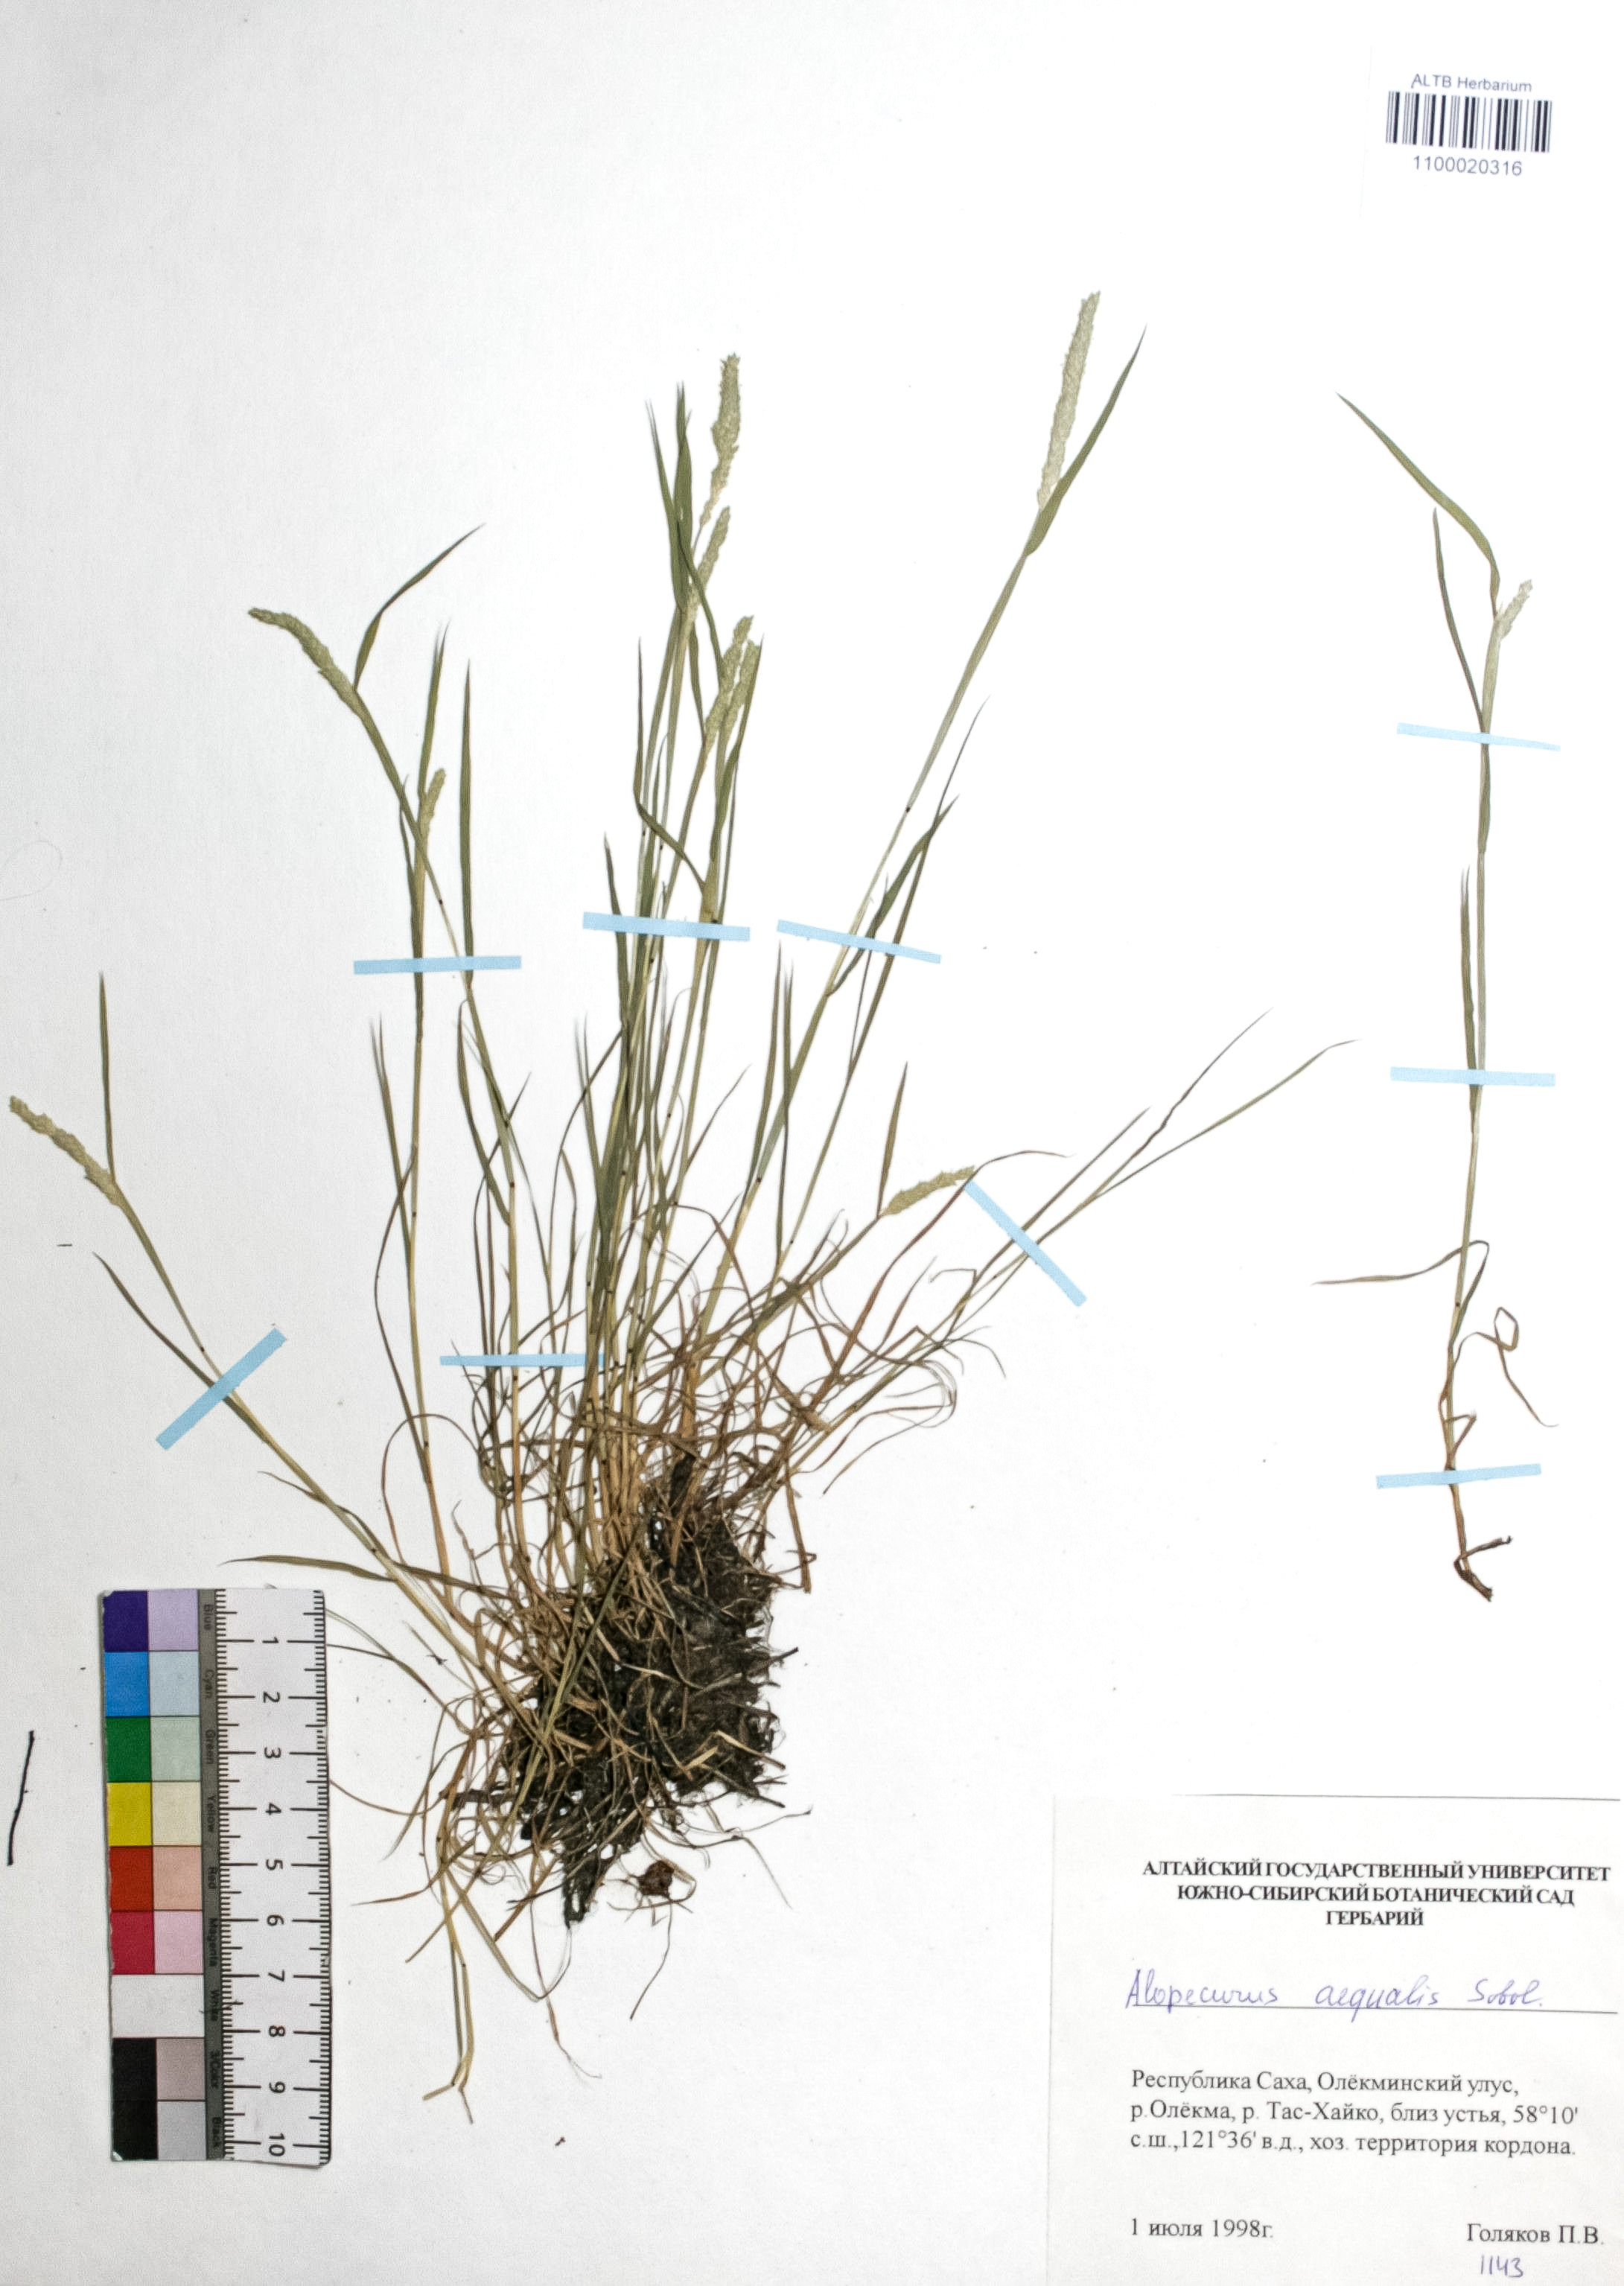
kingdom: Plantae
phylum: Tracheophyta
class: Liliopsida
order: Poales
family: Poaceae
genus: Alopecurus
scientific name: Alopecurus aequalis
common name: Orange foxtail
